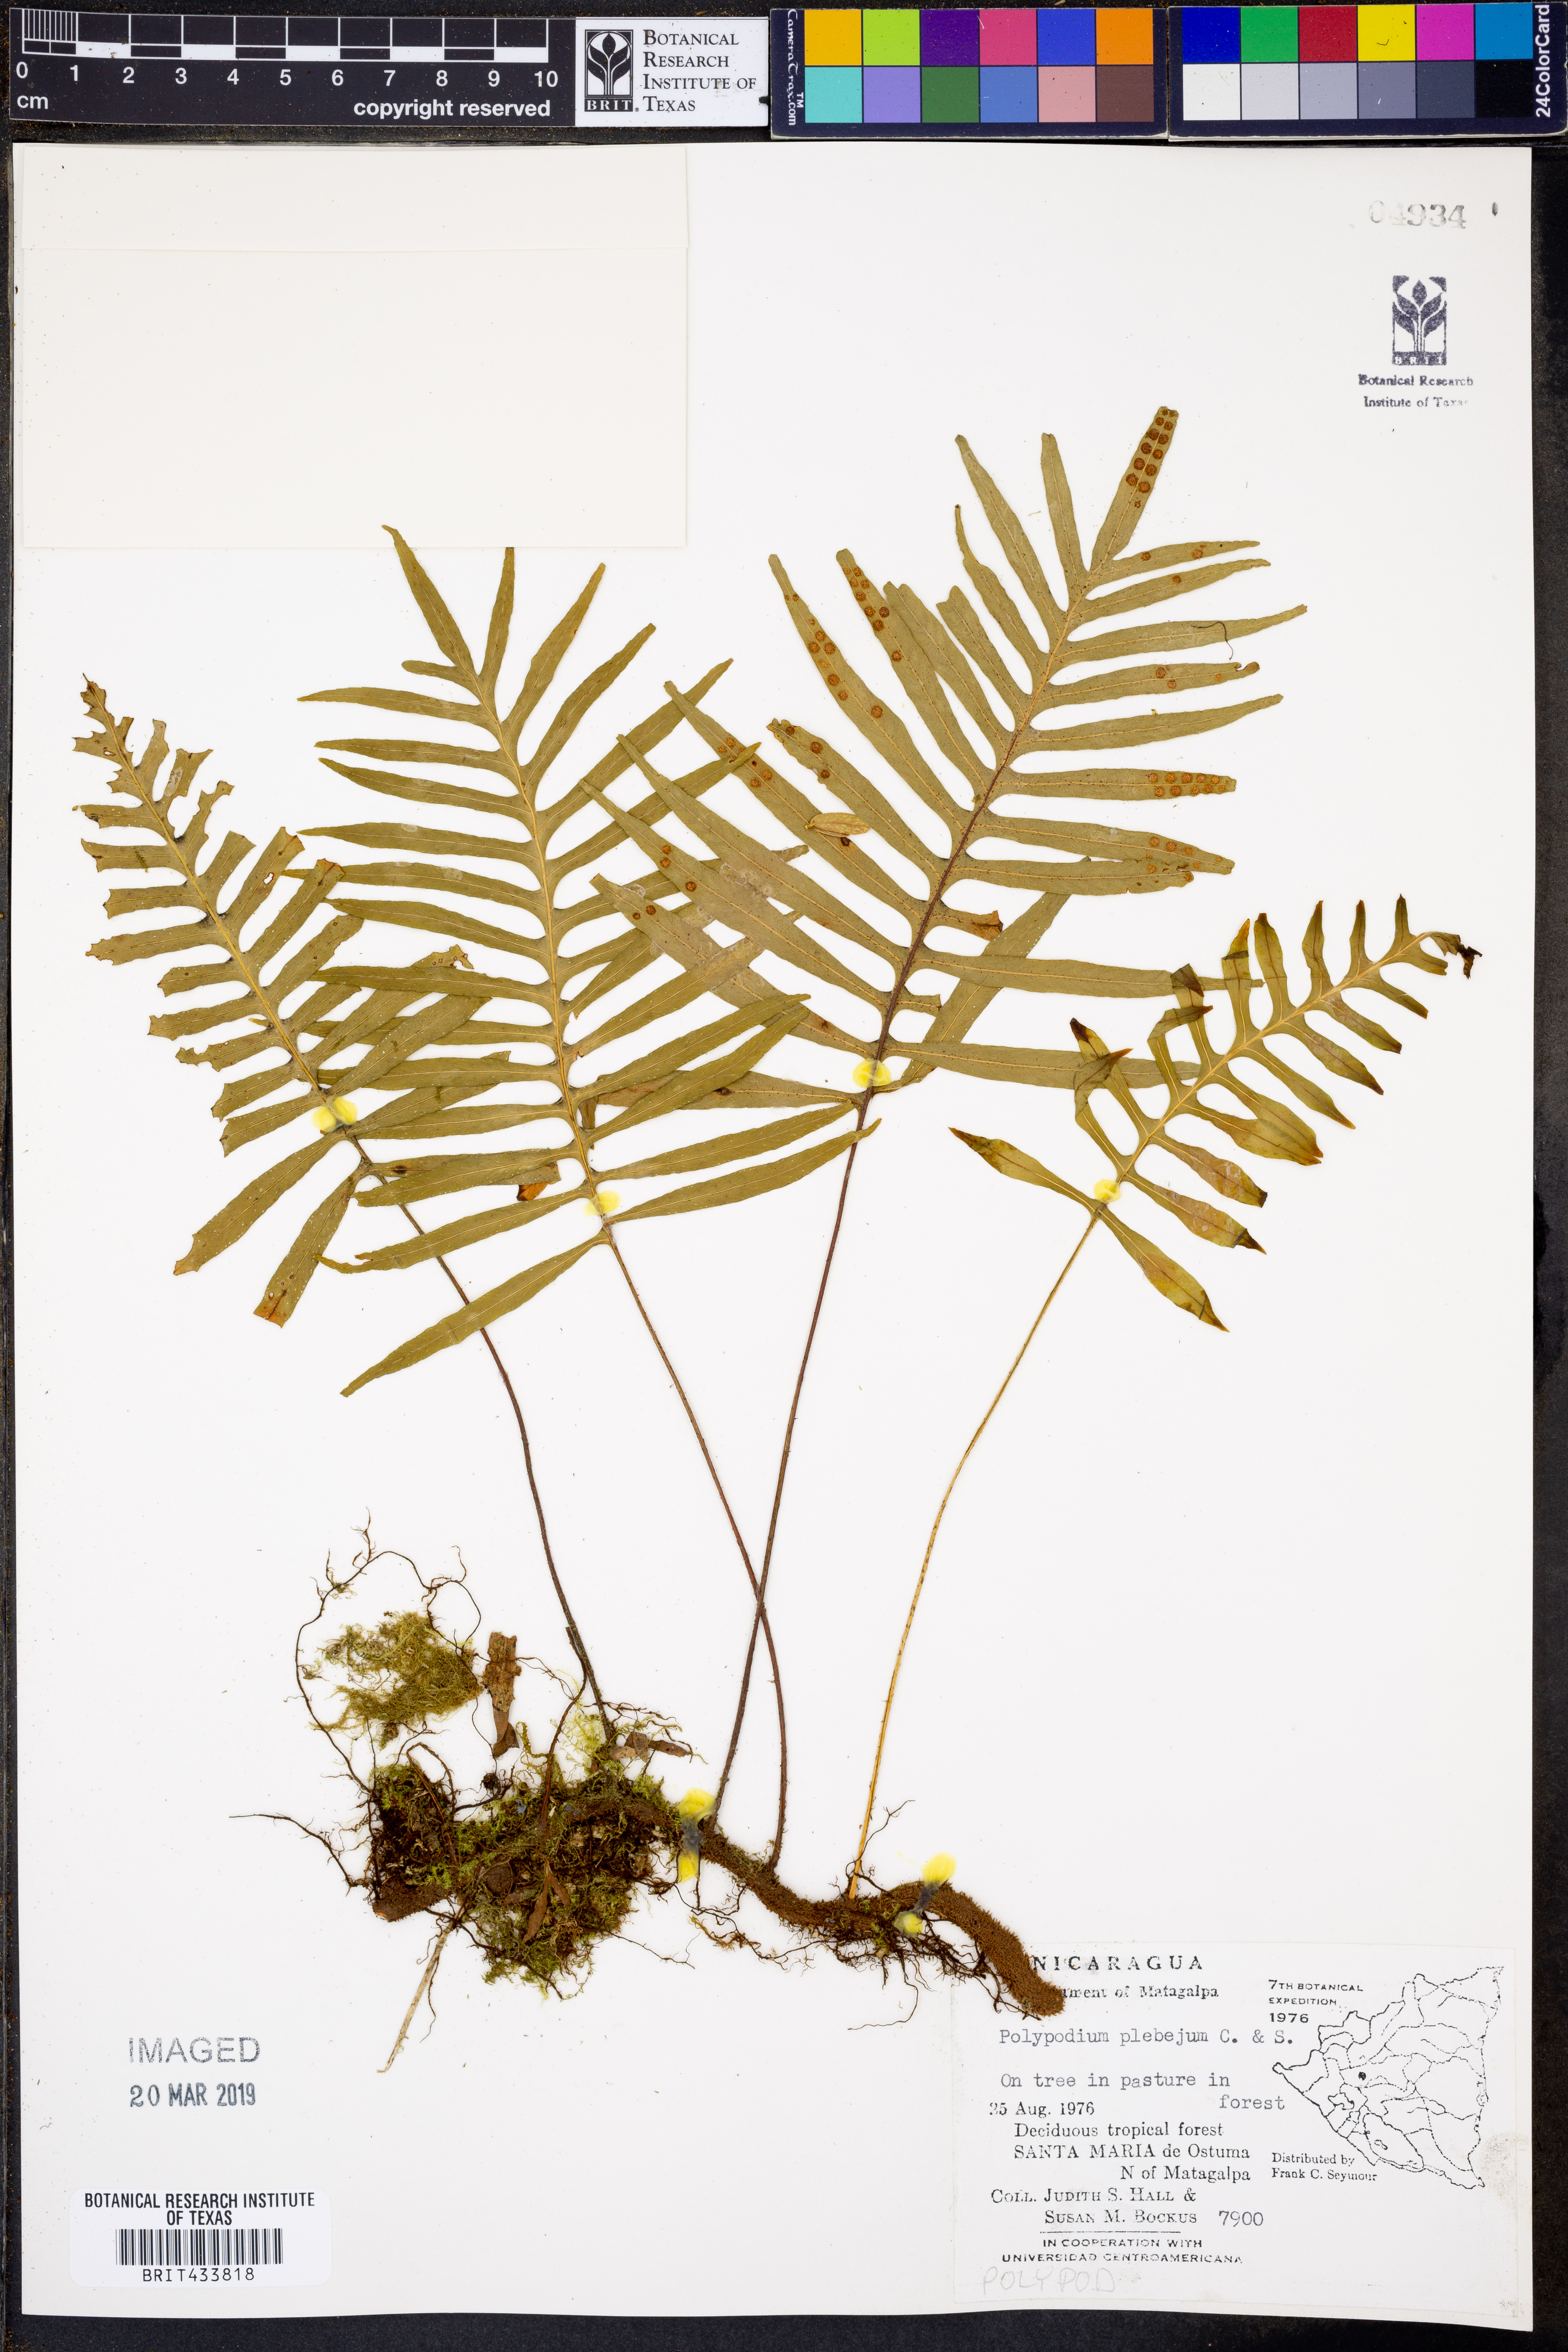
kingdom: Plantae
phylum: Tracheophyta
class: Polypodiopsida
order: Polypodiales
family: Polypodiaceae
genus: Pleopeltis
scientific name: Pleopeltis plebeia
